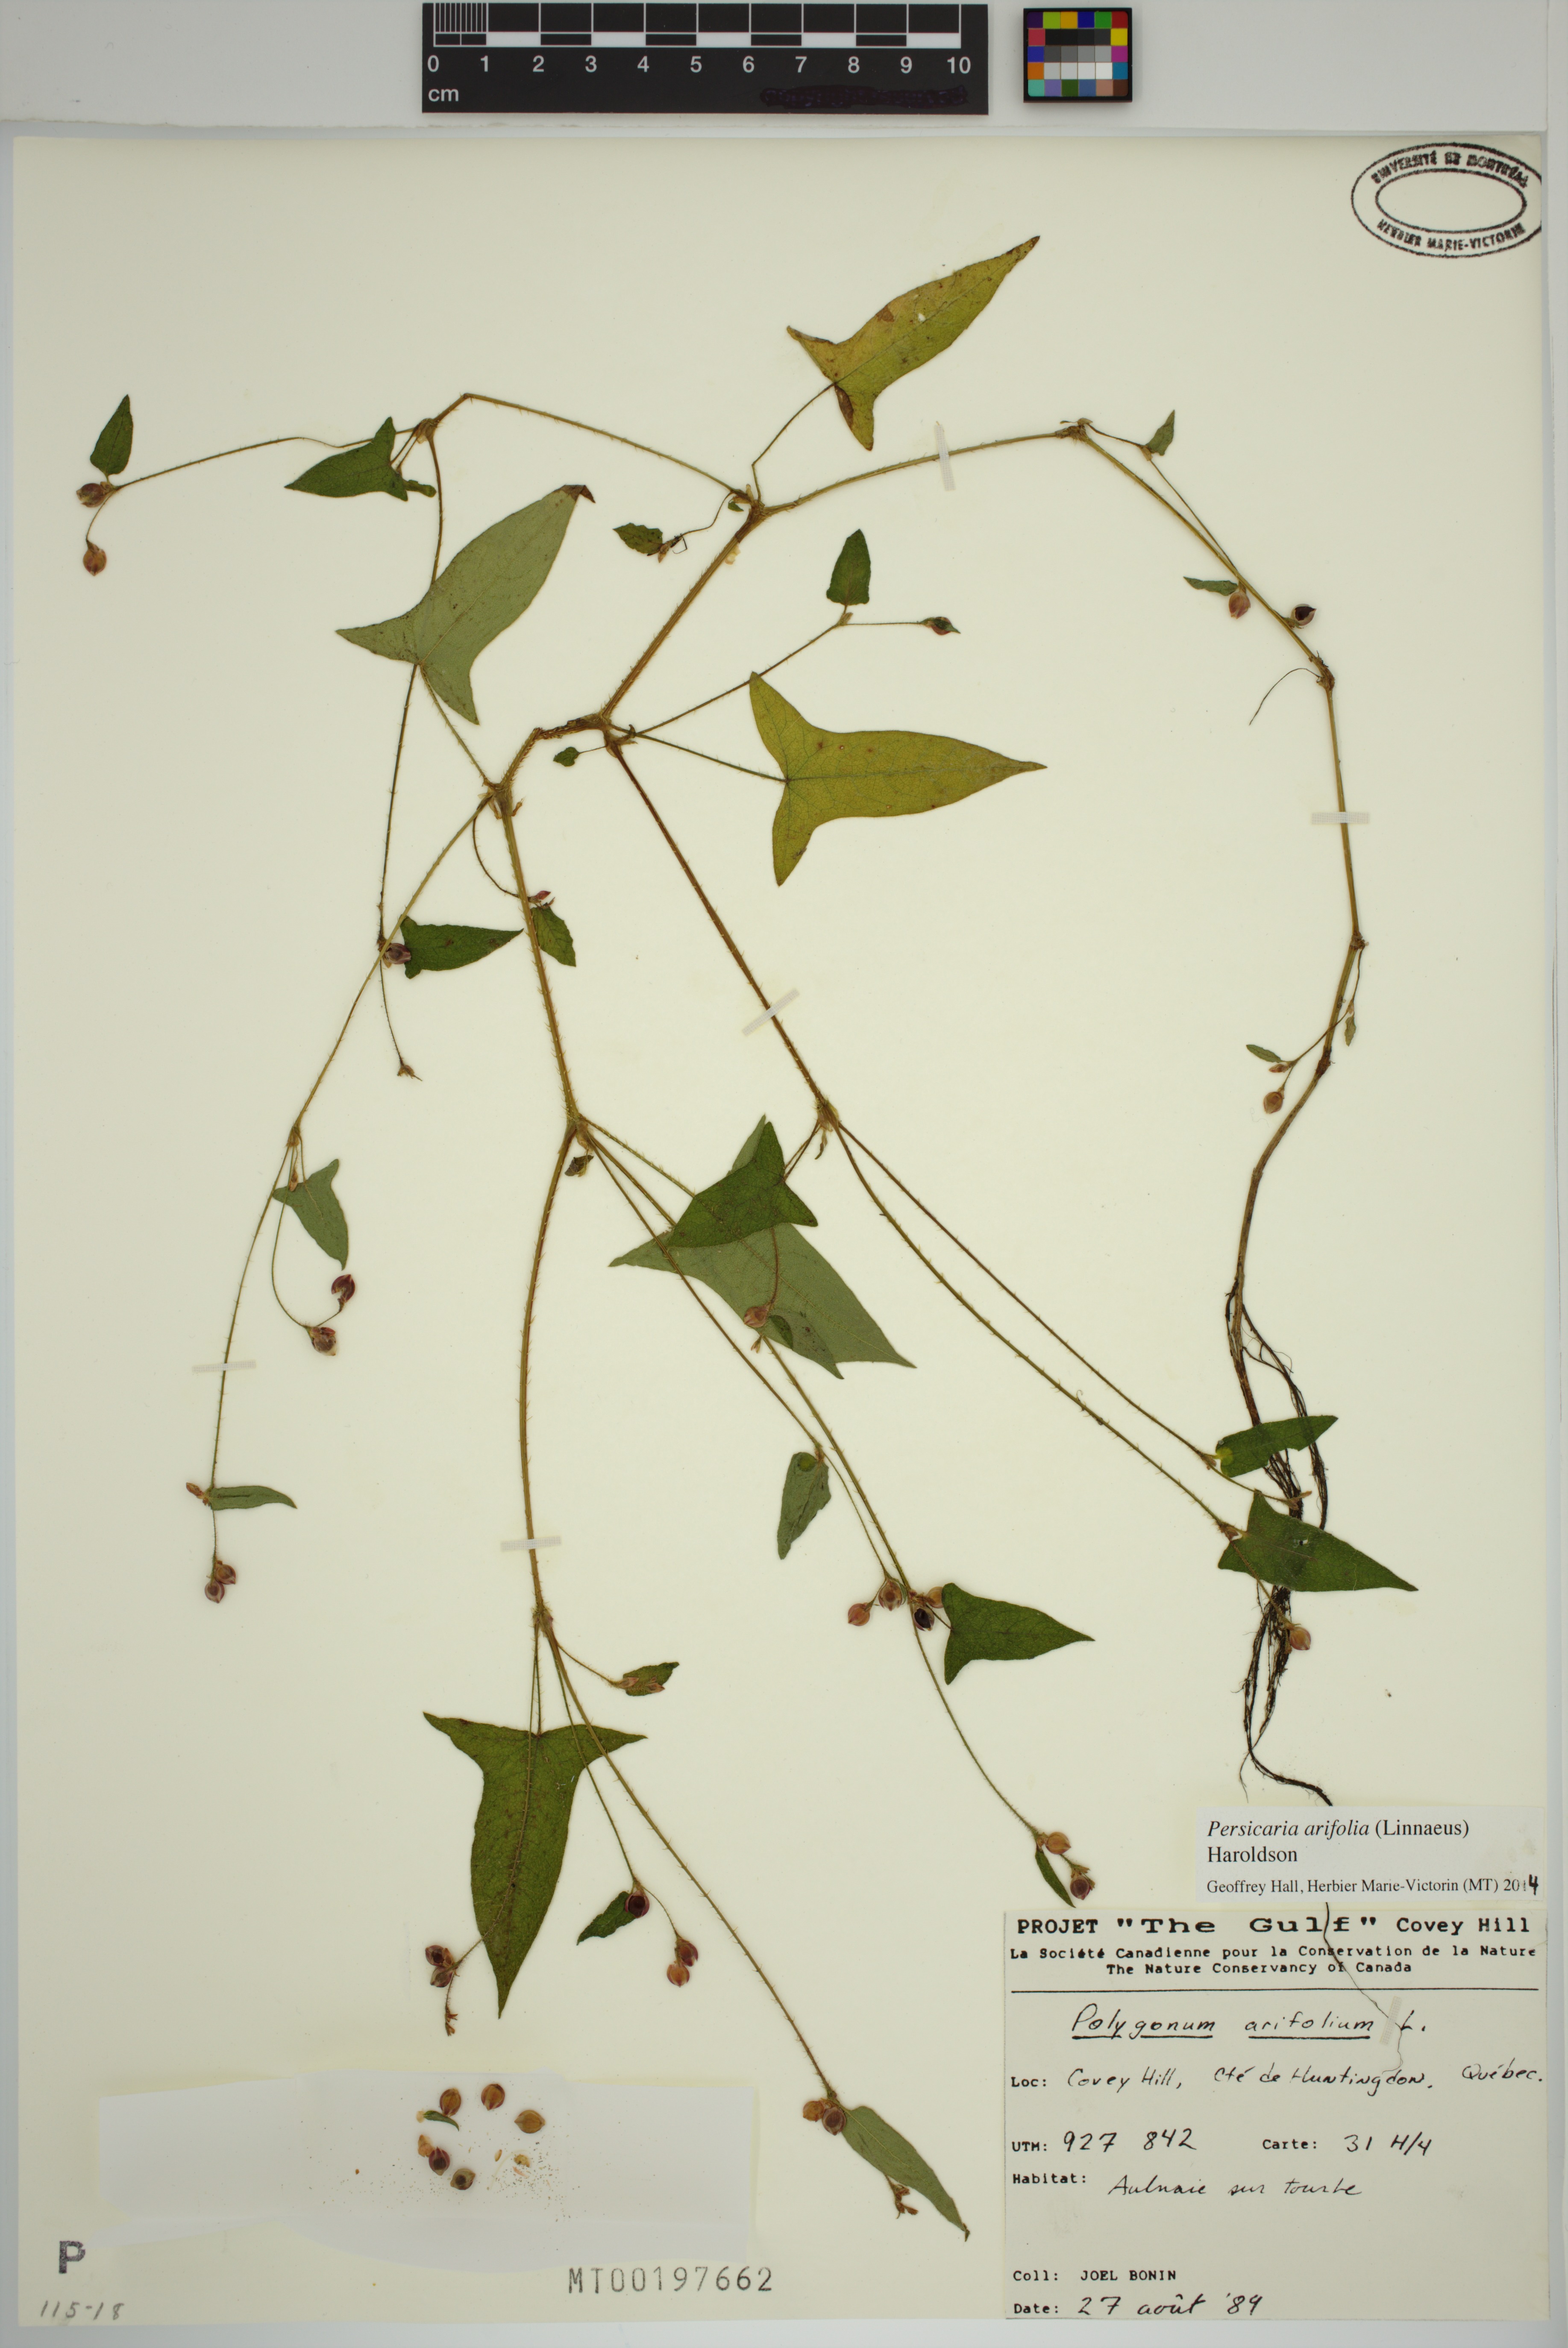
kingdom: Plantae
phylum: Tracheophyta
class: Magnoliopsida
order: Caryophyllales
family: Polygonaceae
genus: Persicaria
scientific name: Persicaria arifolia
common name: Halberd-leaved tear-thumb
